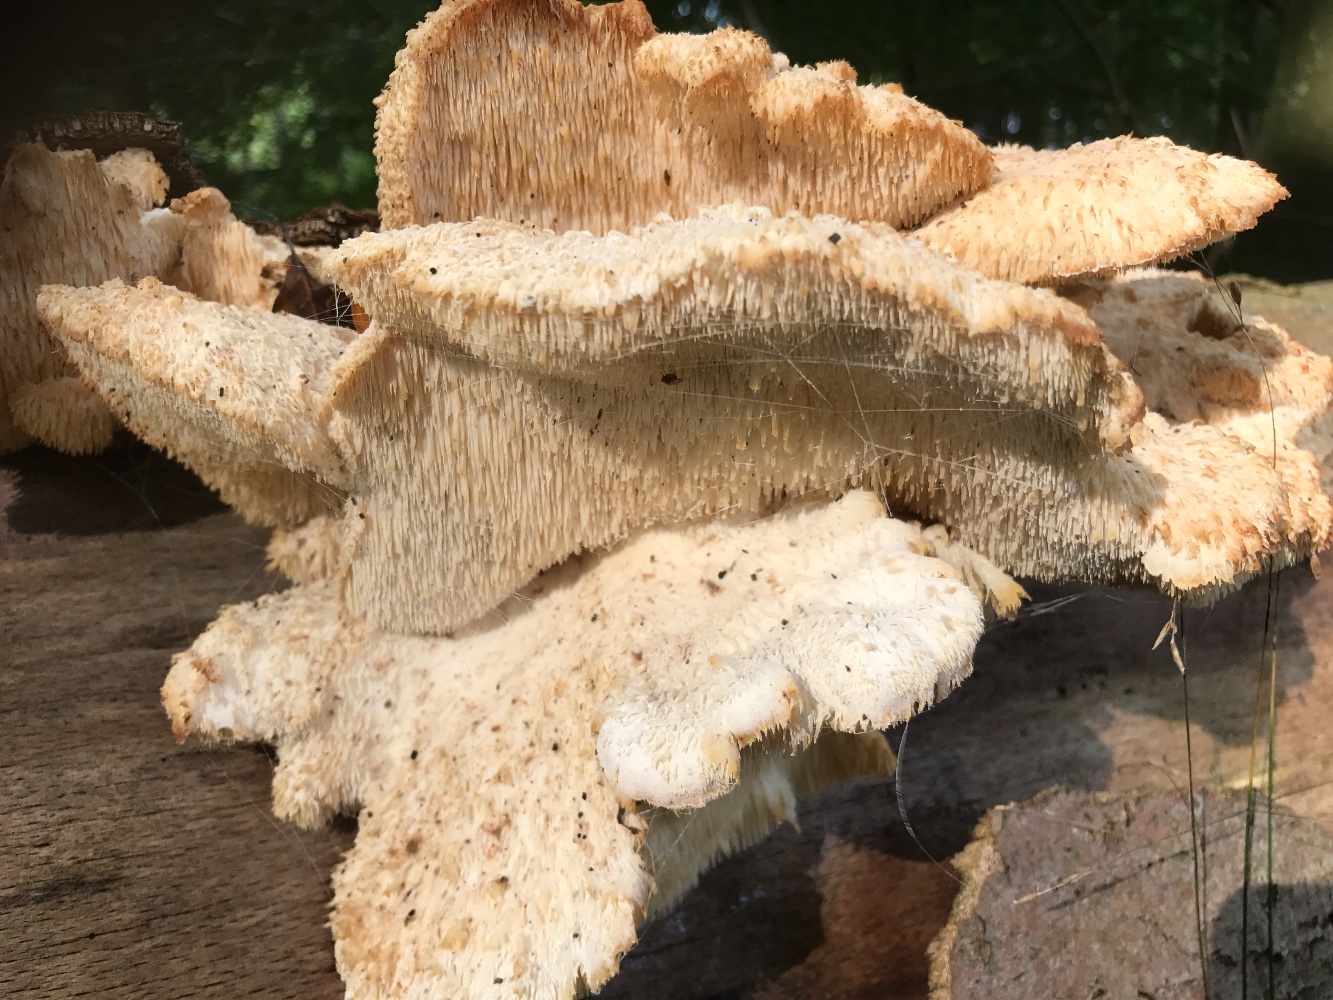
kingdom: Fungi
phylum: Basidiomycota
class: Agaricomycetes
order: Russulales
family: Hericiaceae
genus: Hericium
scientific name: Hericium cirrhatum
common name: børstepigsvamp
